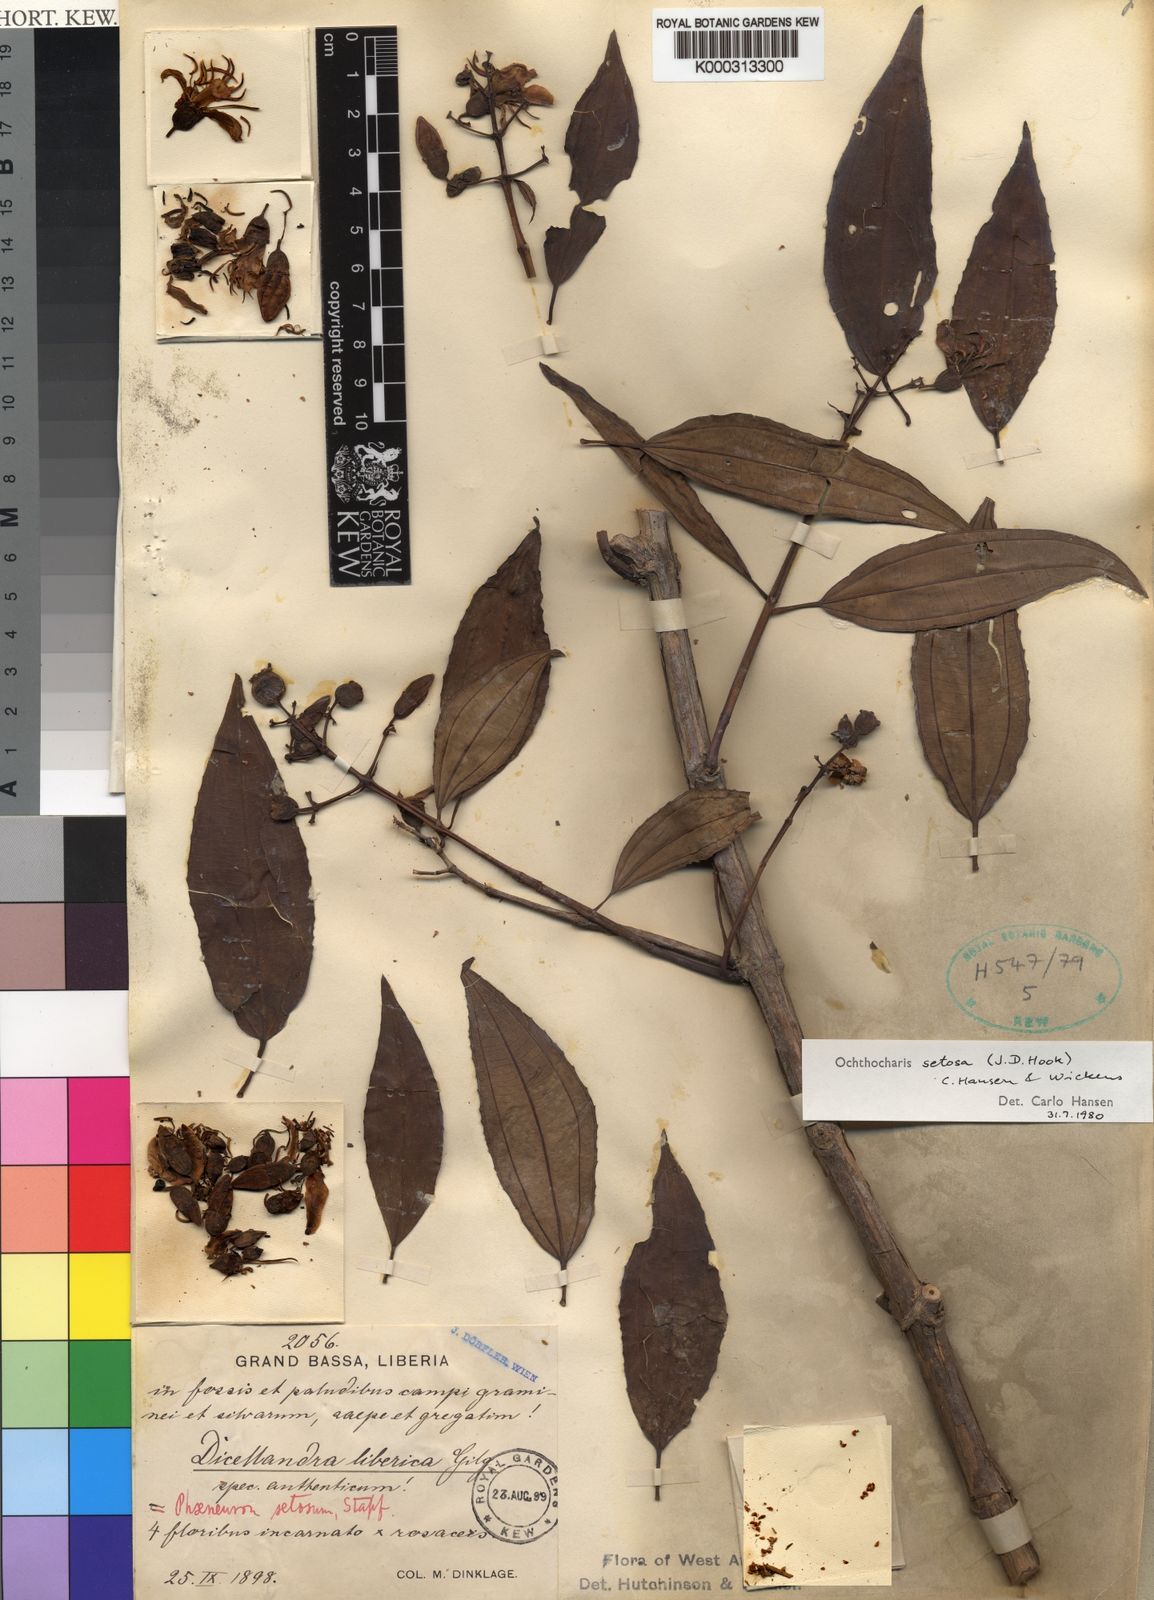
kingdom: Plantae
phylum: Tracheophyta
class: Magnoliopsida
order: Myrtales
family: Melastomataceae
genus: Ochthocharis
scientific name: Ochthocharis setosa
